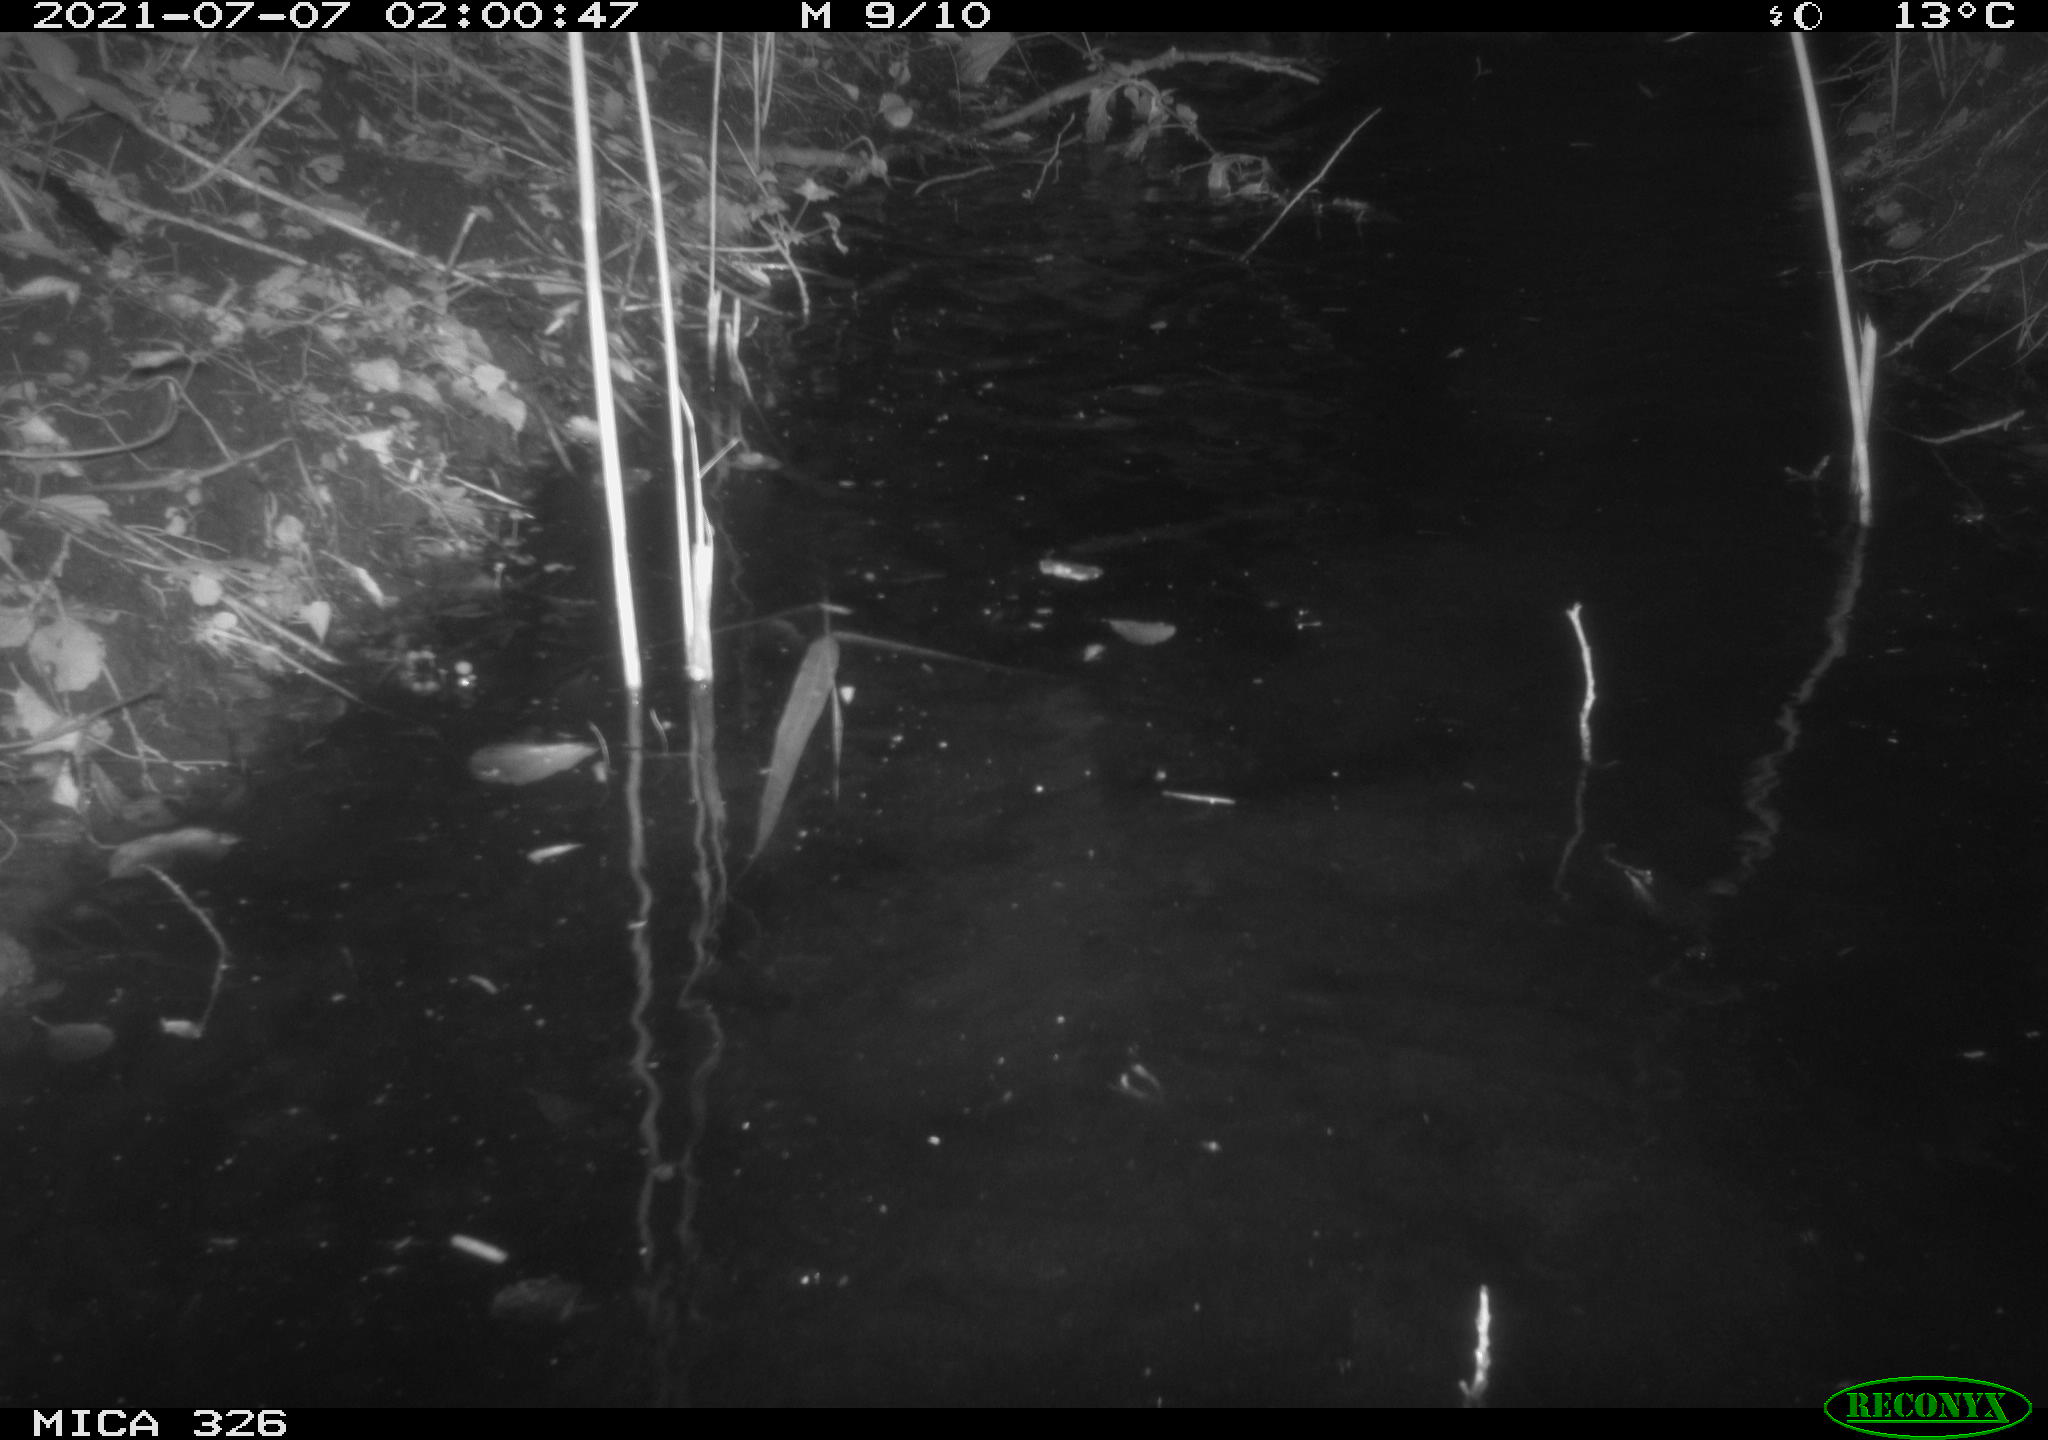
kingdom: Animalia
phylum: Chordata
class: Mammalia
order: Carnivora
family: Mustelidae
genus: Lutra
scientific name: Lutra lutra
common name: European otter
